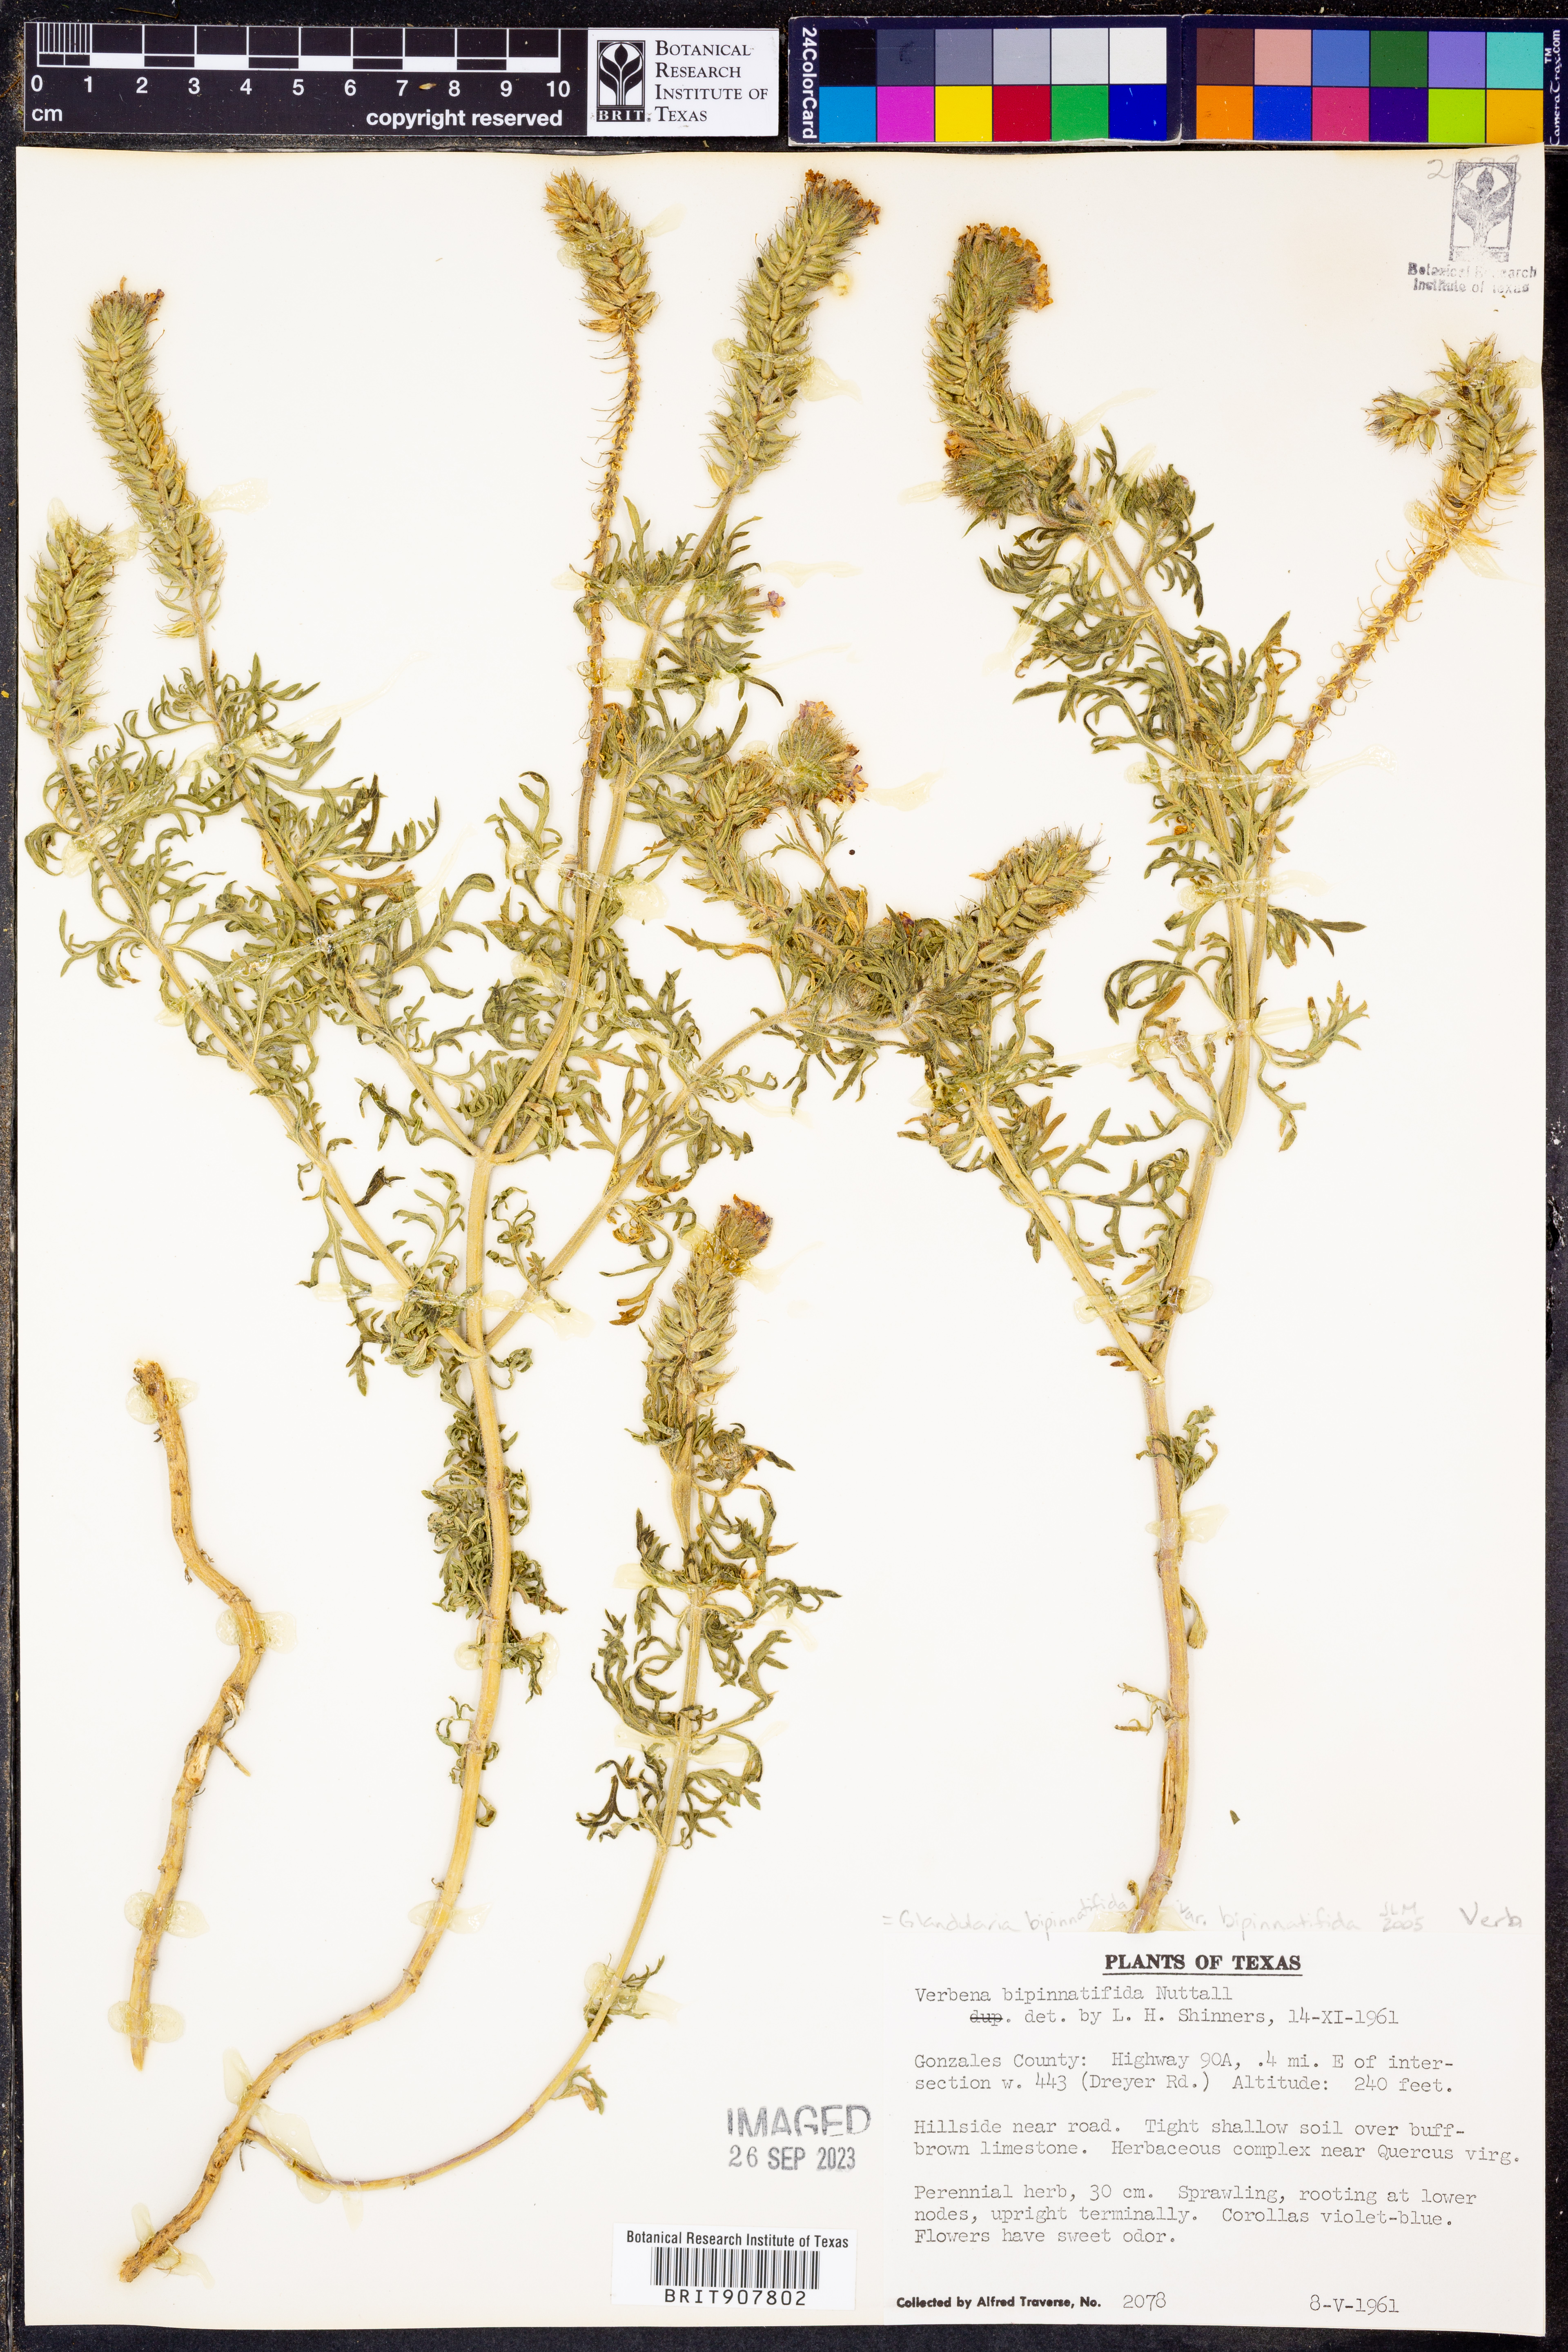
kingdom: Plantae
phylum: Tracheophyta
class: Magnoliopsida
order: Lamiales
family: Verbenaceae
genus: Verbena
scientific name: Verbena bipinnatifida
